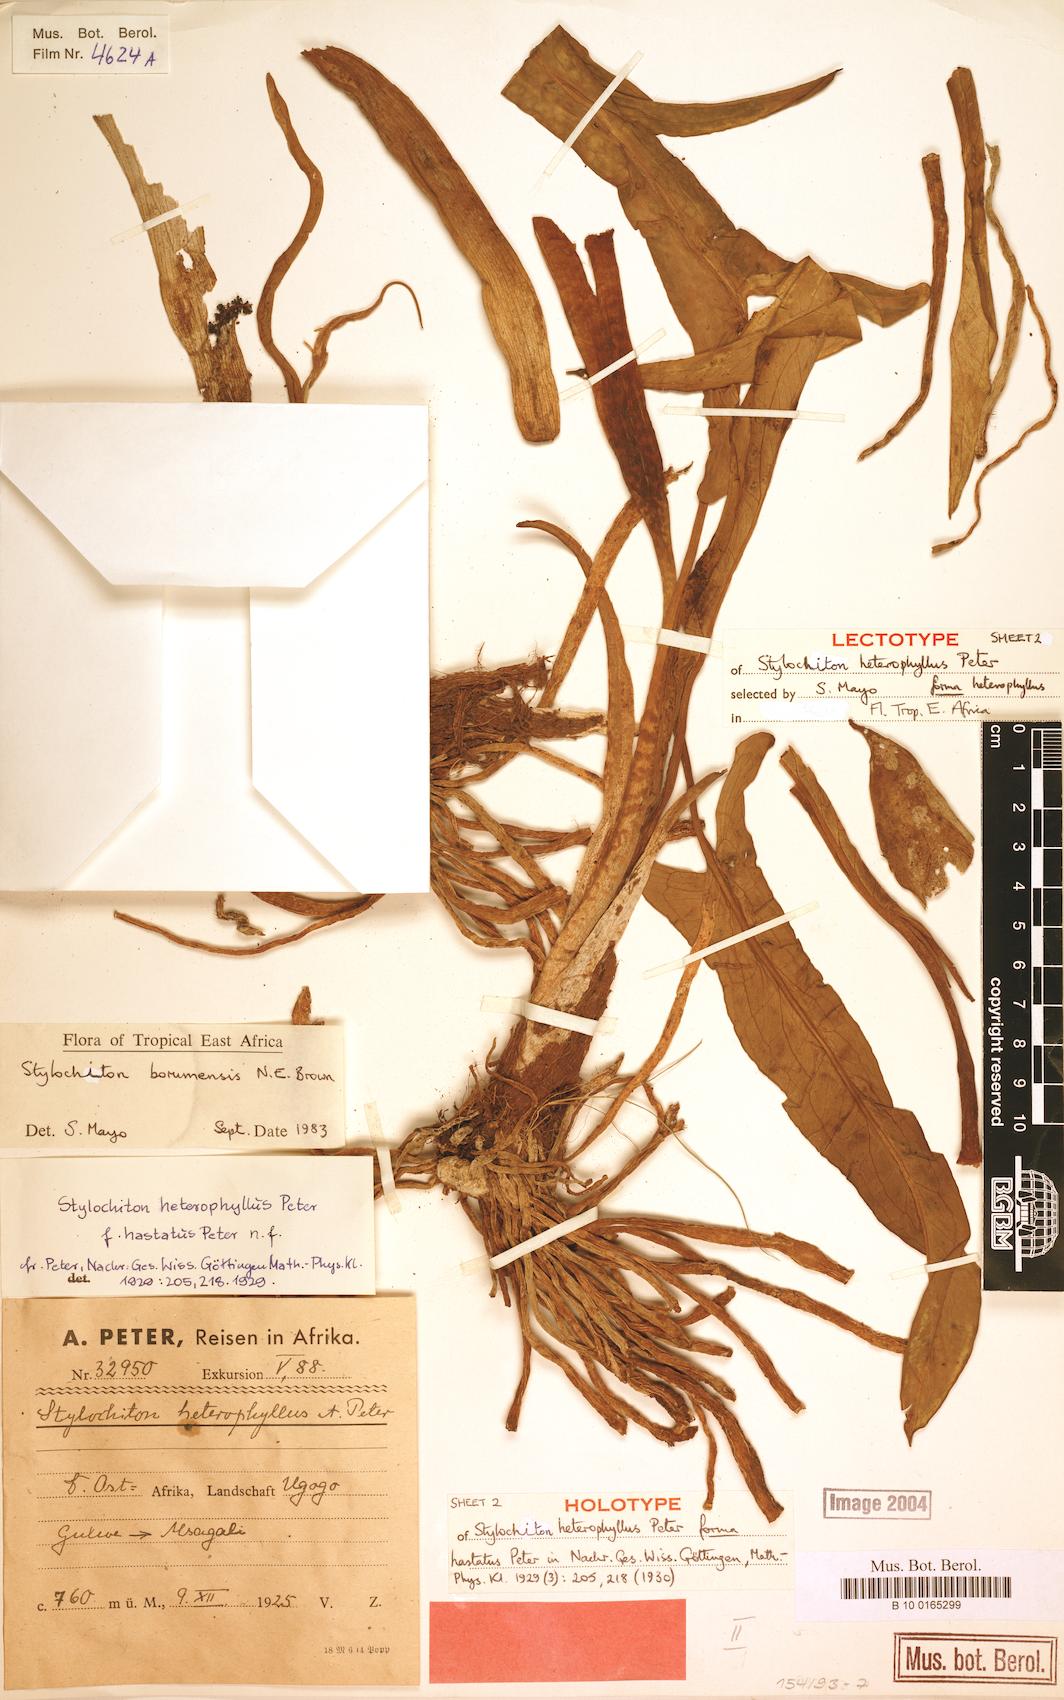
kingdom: Plantae
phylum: Tracheophyta
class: Liliopsida
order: Alismatales
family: Araceae
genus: Stylochiton
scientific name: Stylochiton borumensis
